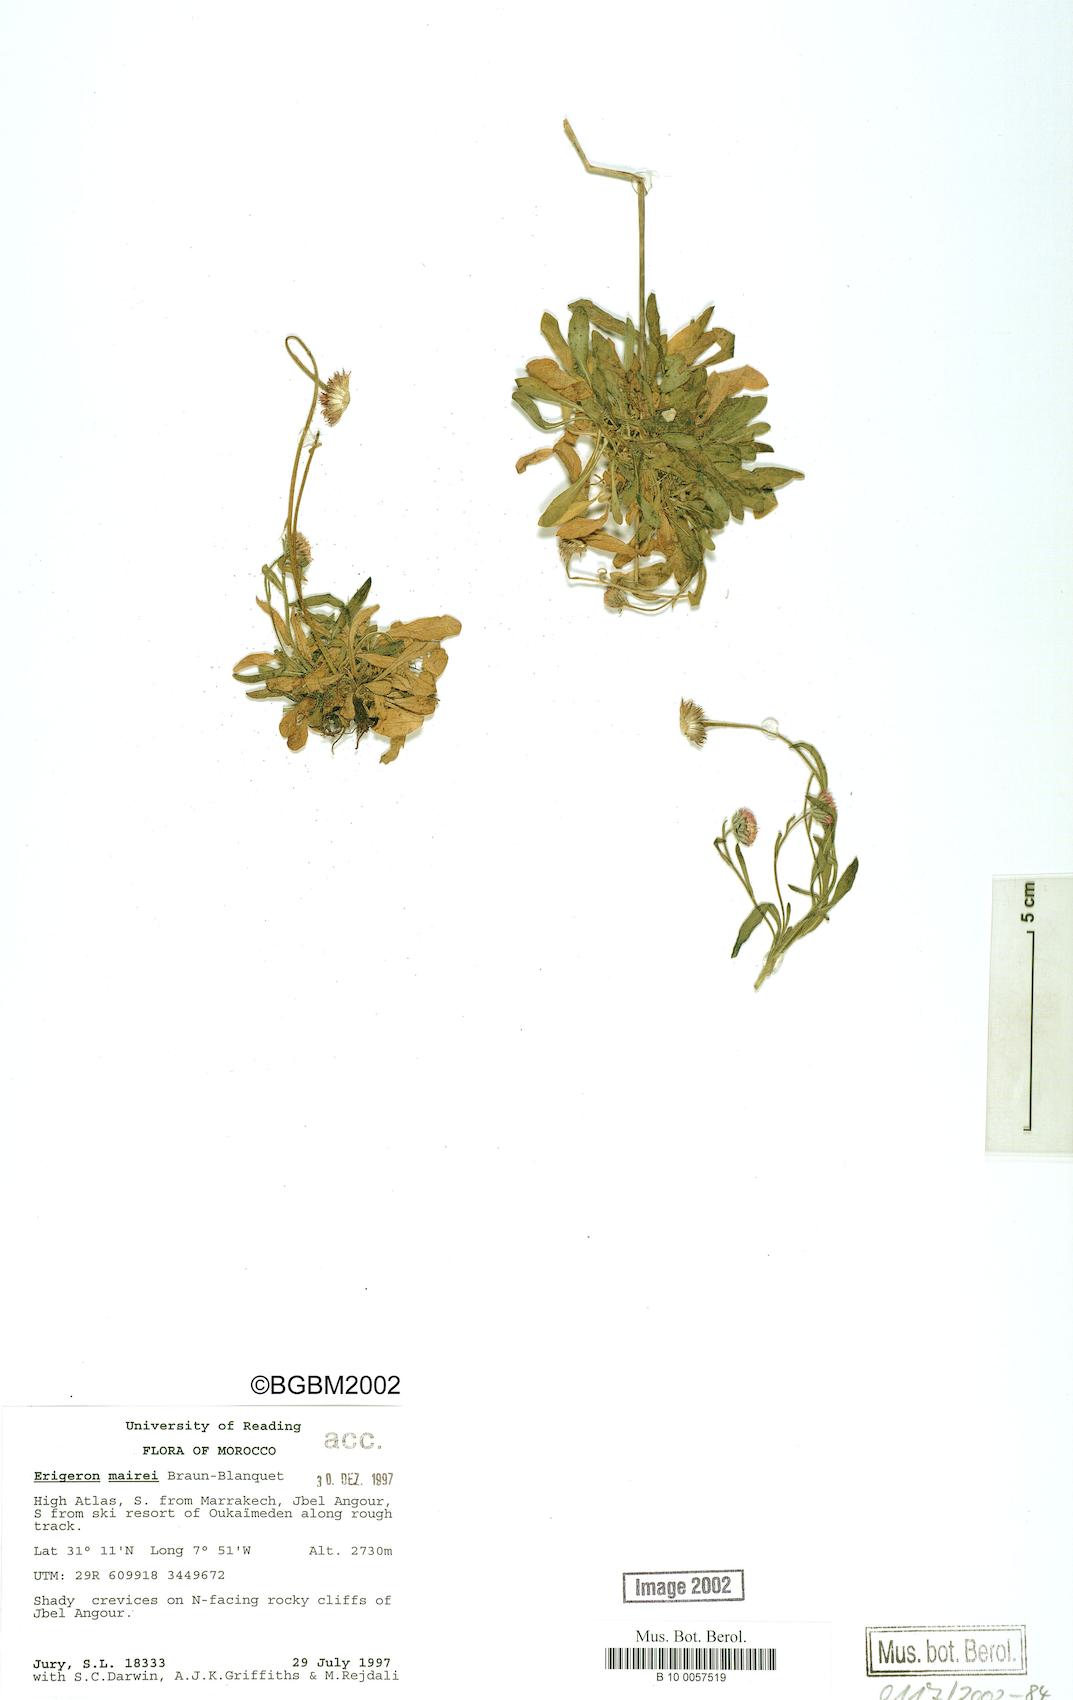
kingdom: Plantae
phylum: Tracheophyta
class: Magnoliopsida
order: Asterales
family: Asteraceae
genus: Erigeron
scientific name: Erigeron granatensis
